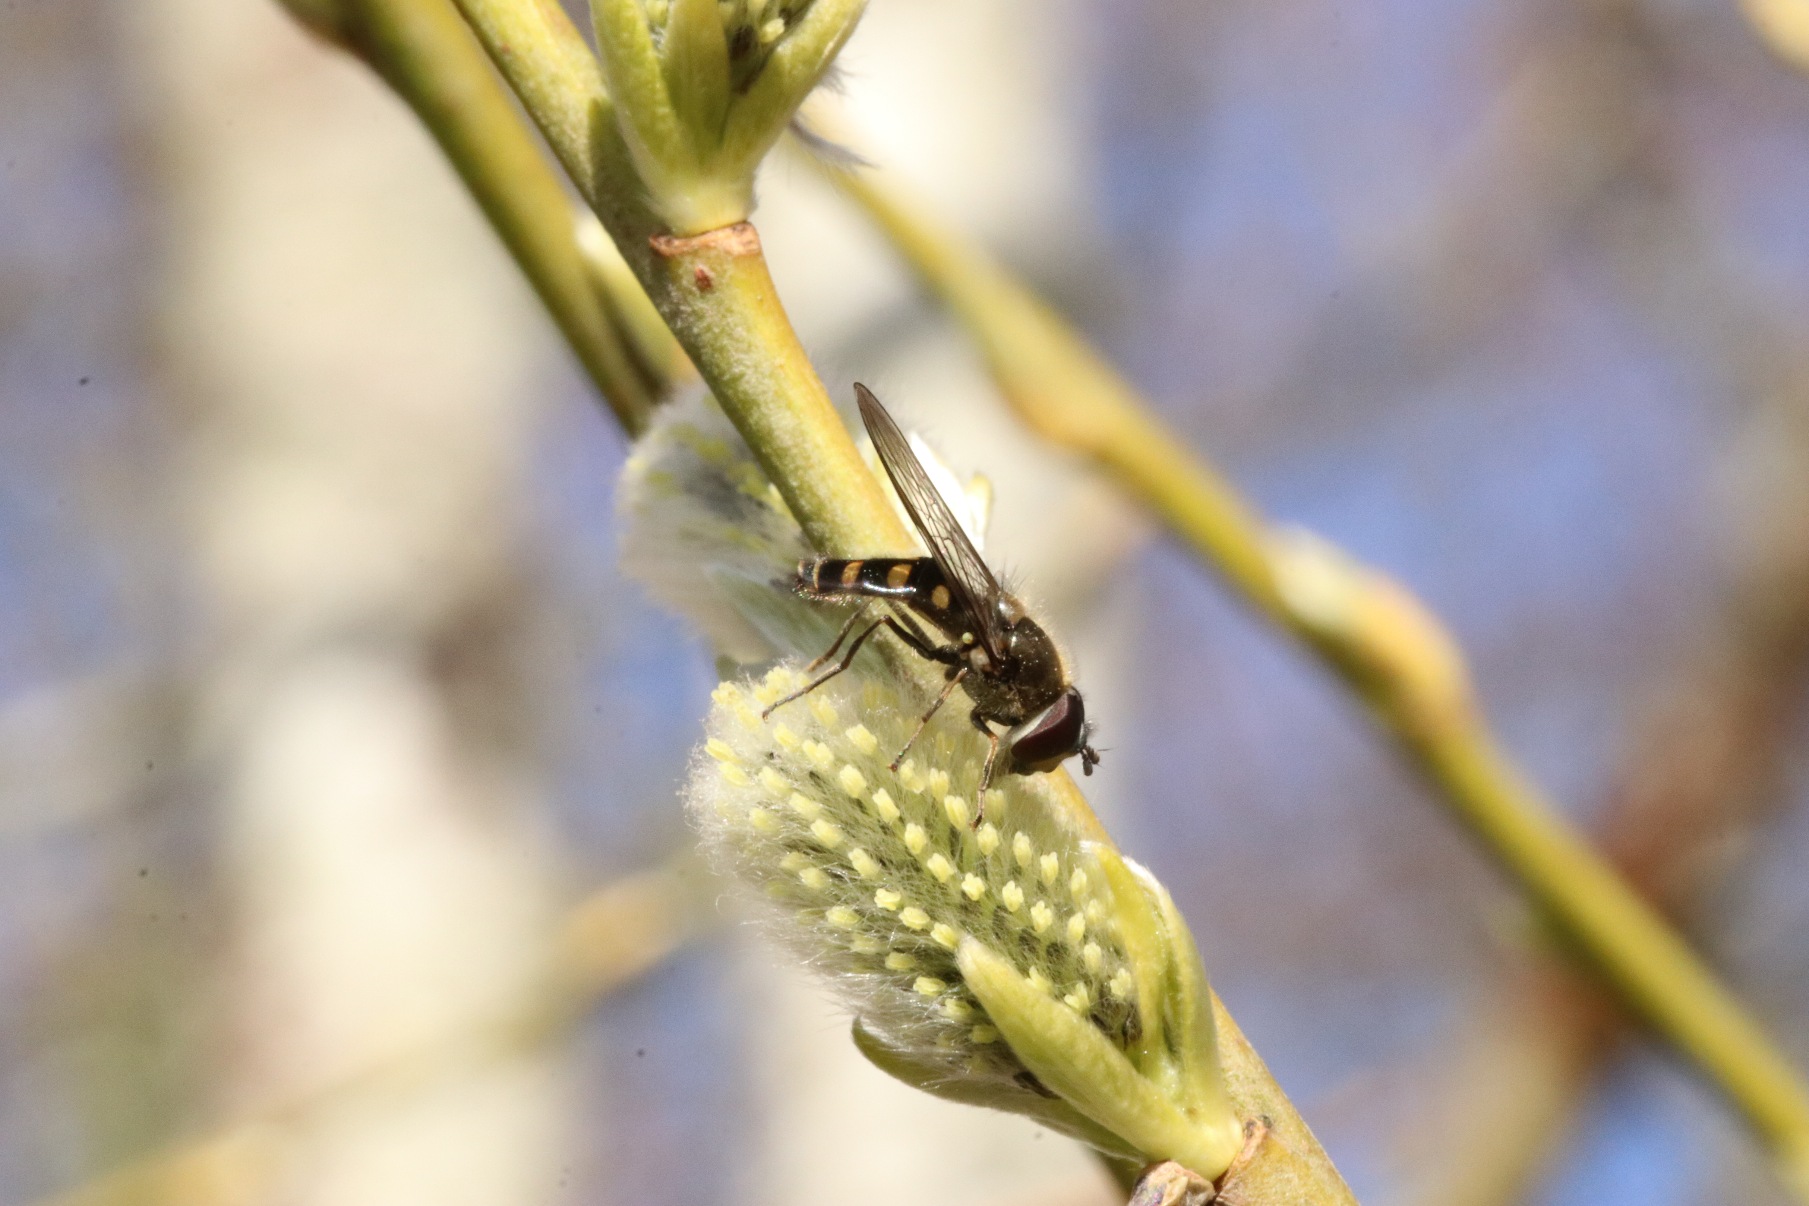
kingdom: Animalia
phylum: Arthropoda
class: Insecta
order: Diptera
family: Syrphidae
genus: Melangyna
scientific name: Melangyna lasiophthalma
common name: Håret svirreflue
